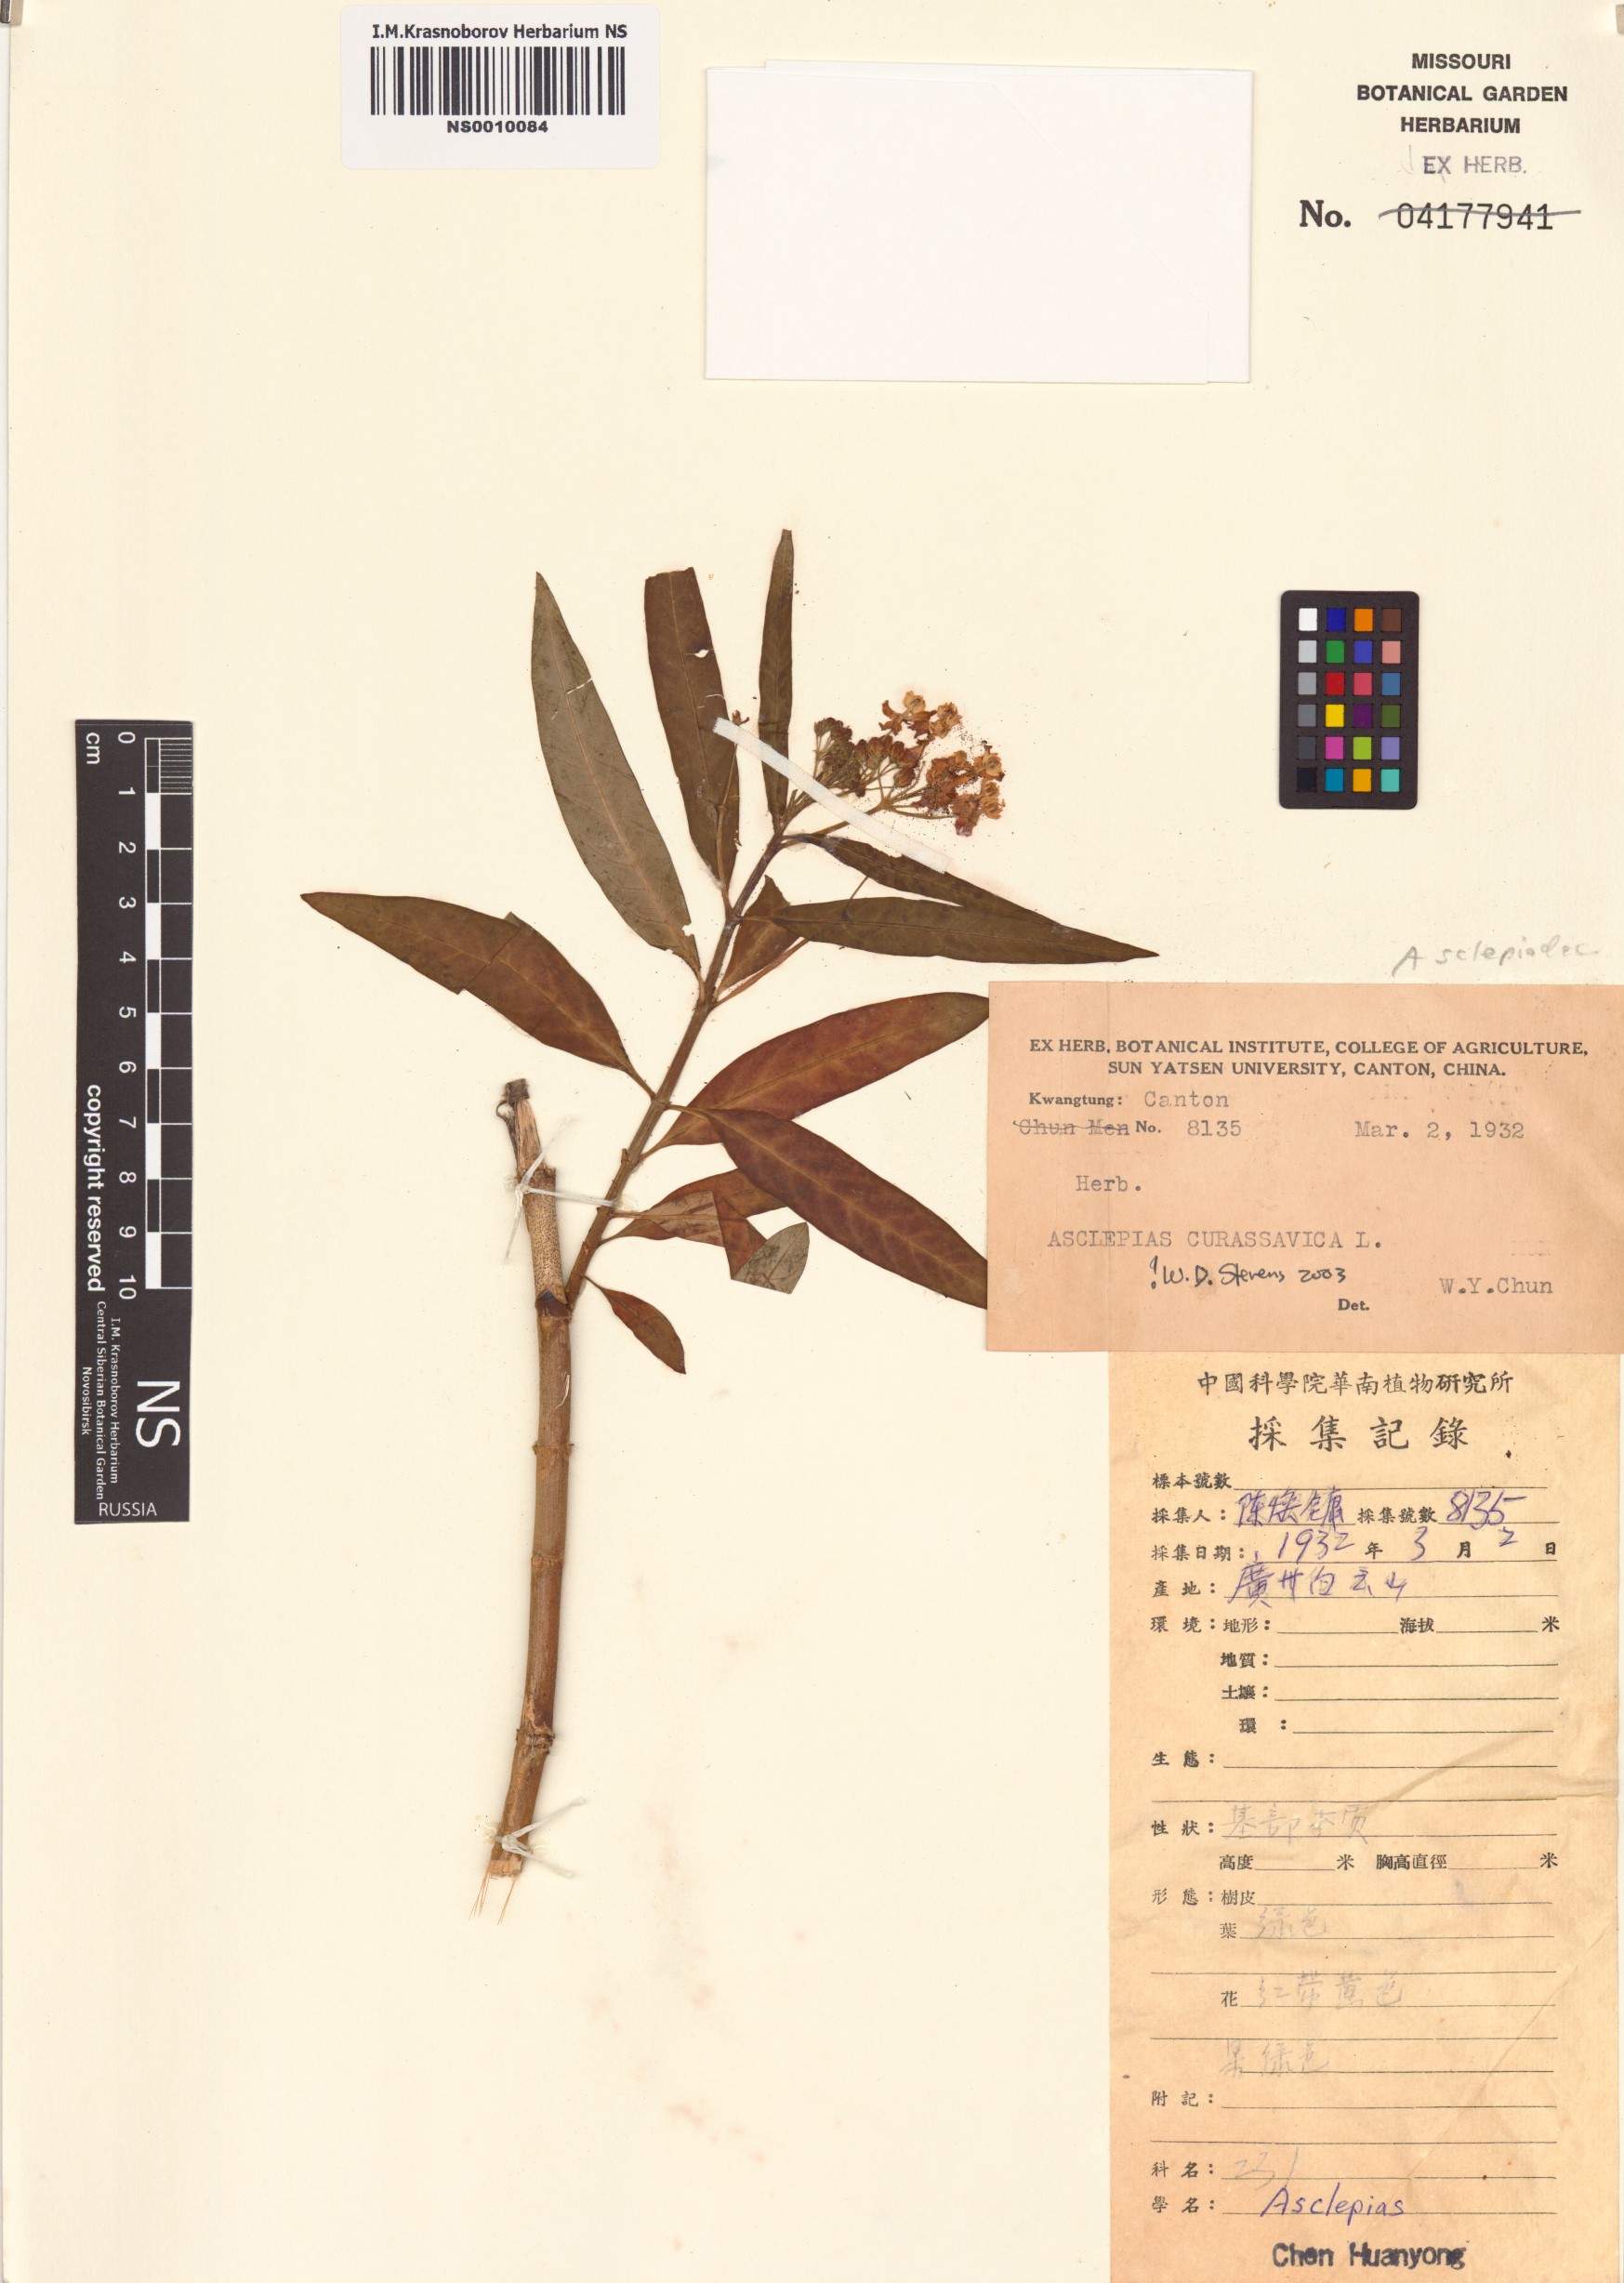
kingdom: Plantae
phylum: Tracheophyta
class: Magnoliopsida
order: Gentianales
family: Apocynaceae
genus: Asclepias
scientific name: Asclepias curassavica
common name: Bloodflower
